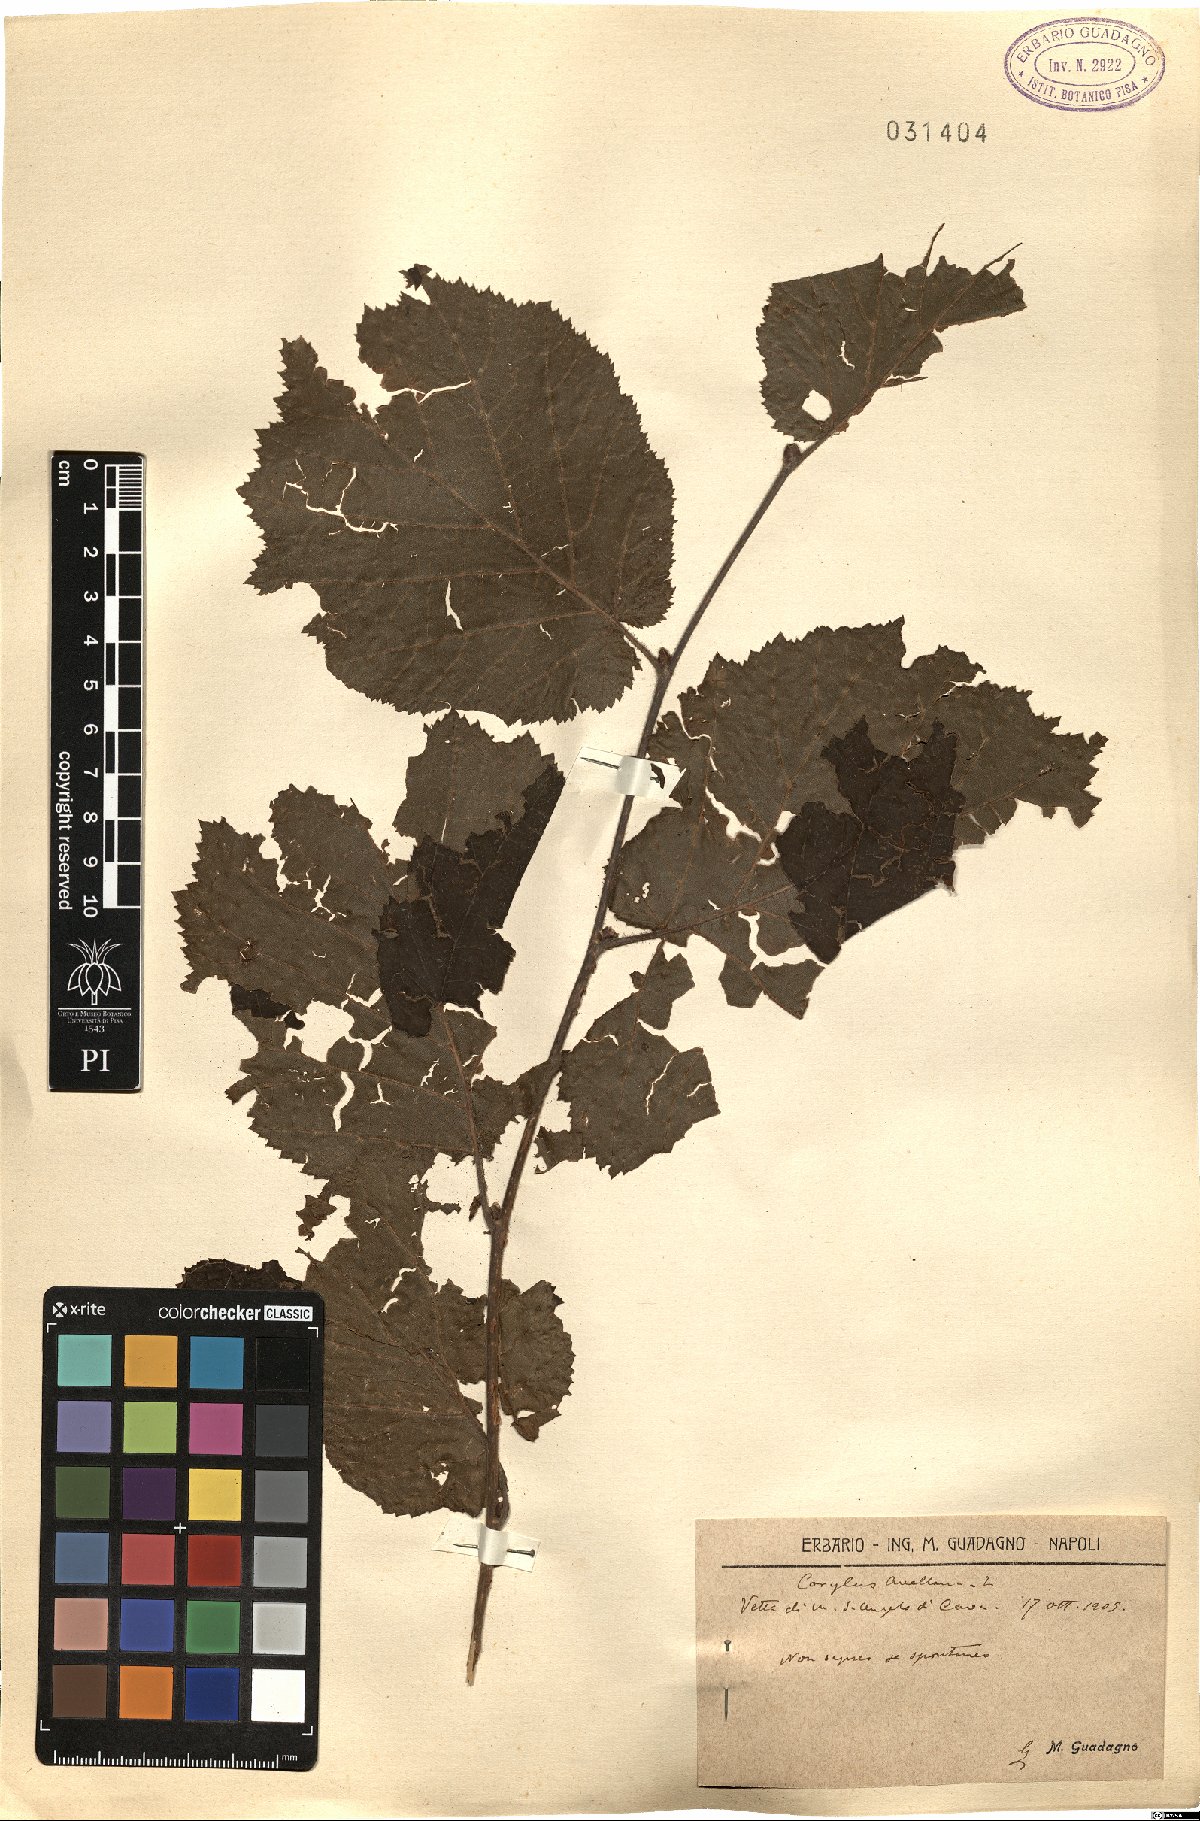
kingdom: Plantae
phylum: Tracheophyta
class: Magnoliopsida
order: Fagales
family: Betulaceae
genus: Corylus
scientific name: Corylus avellana
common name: European hazel
